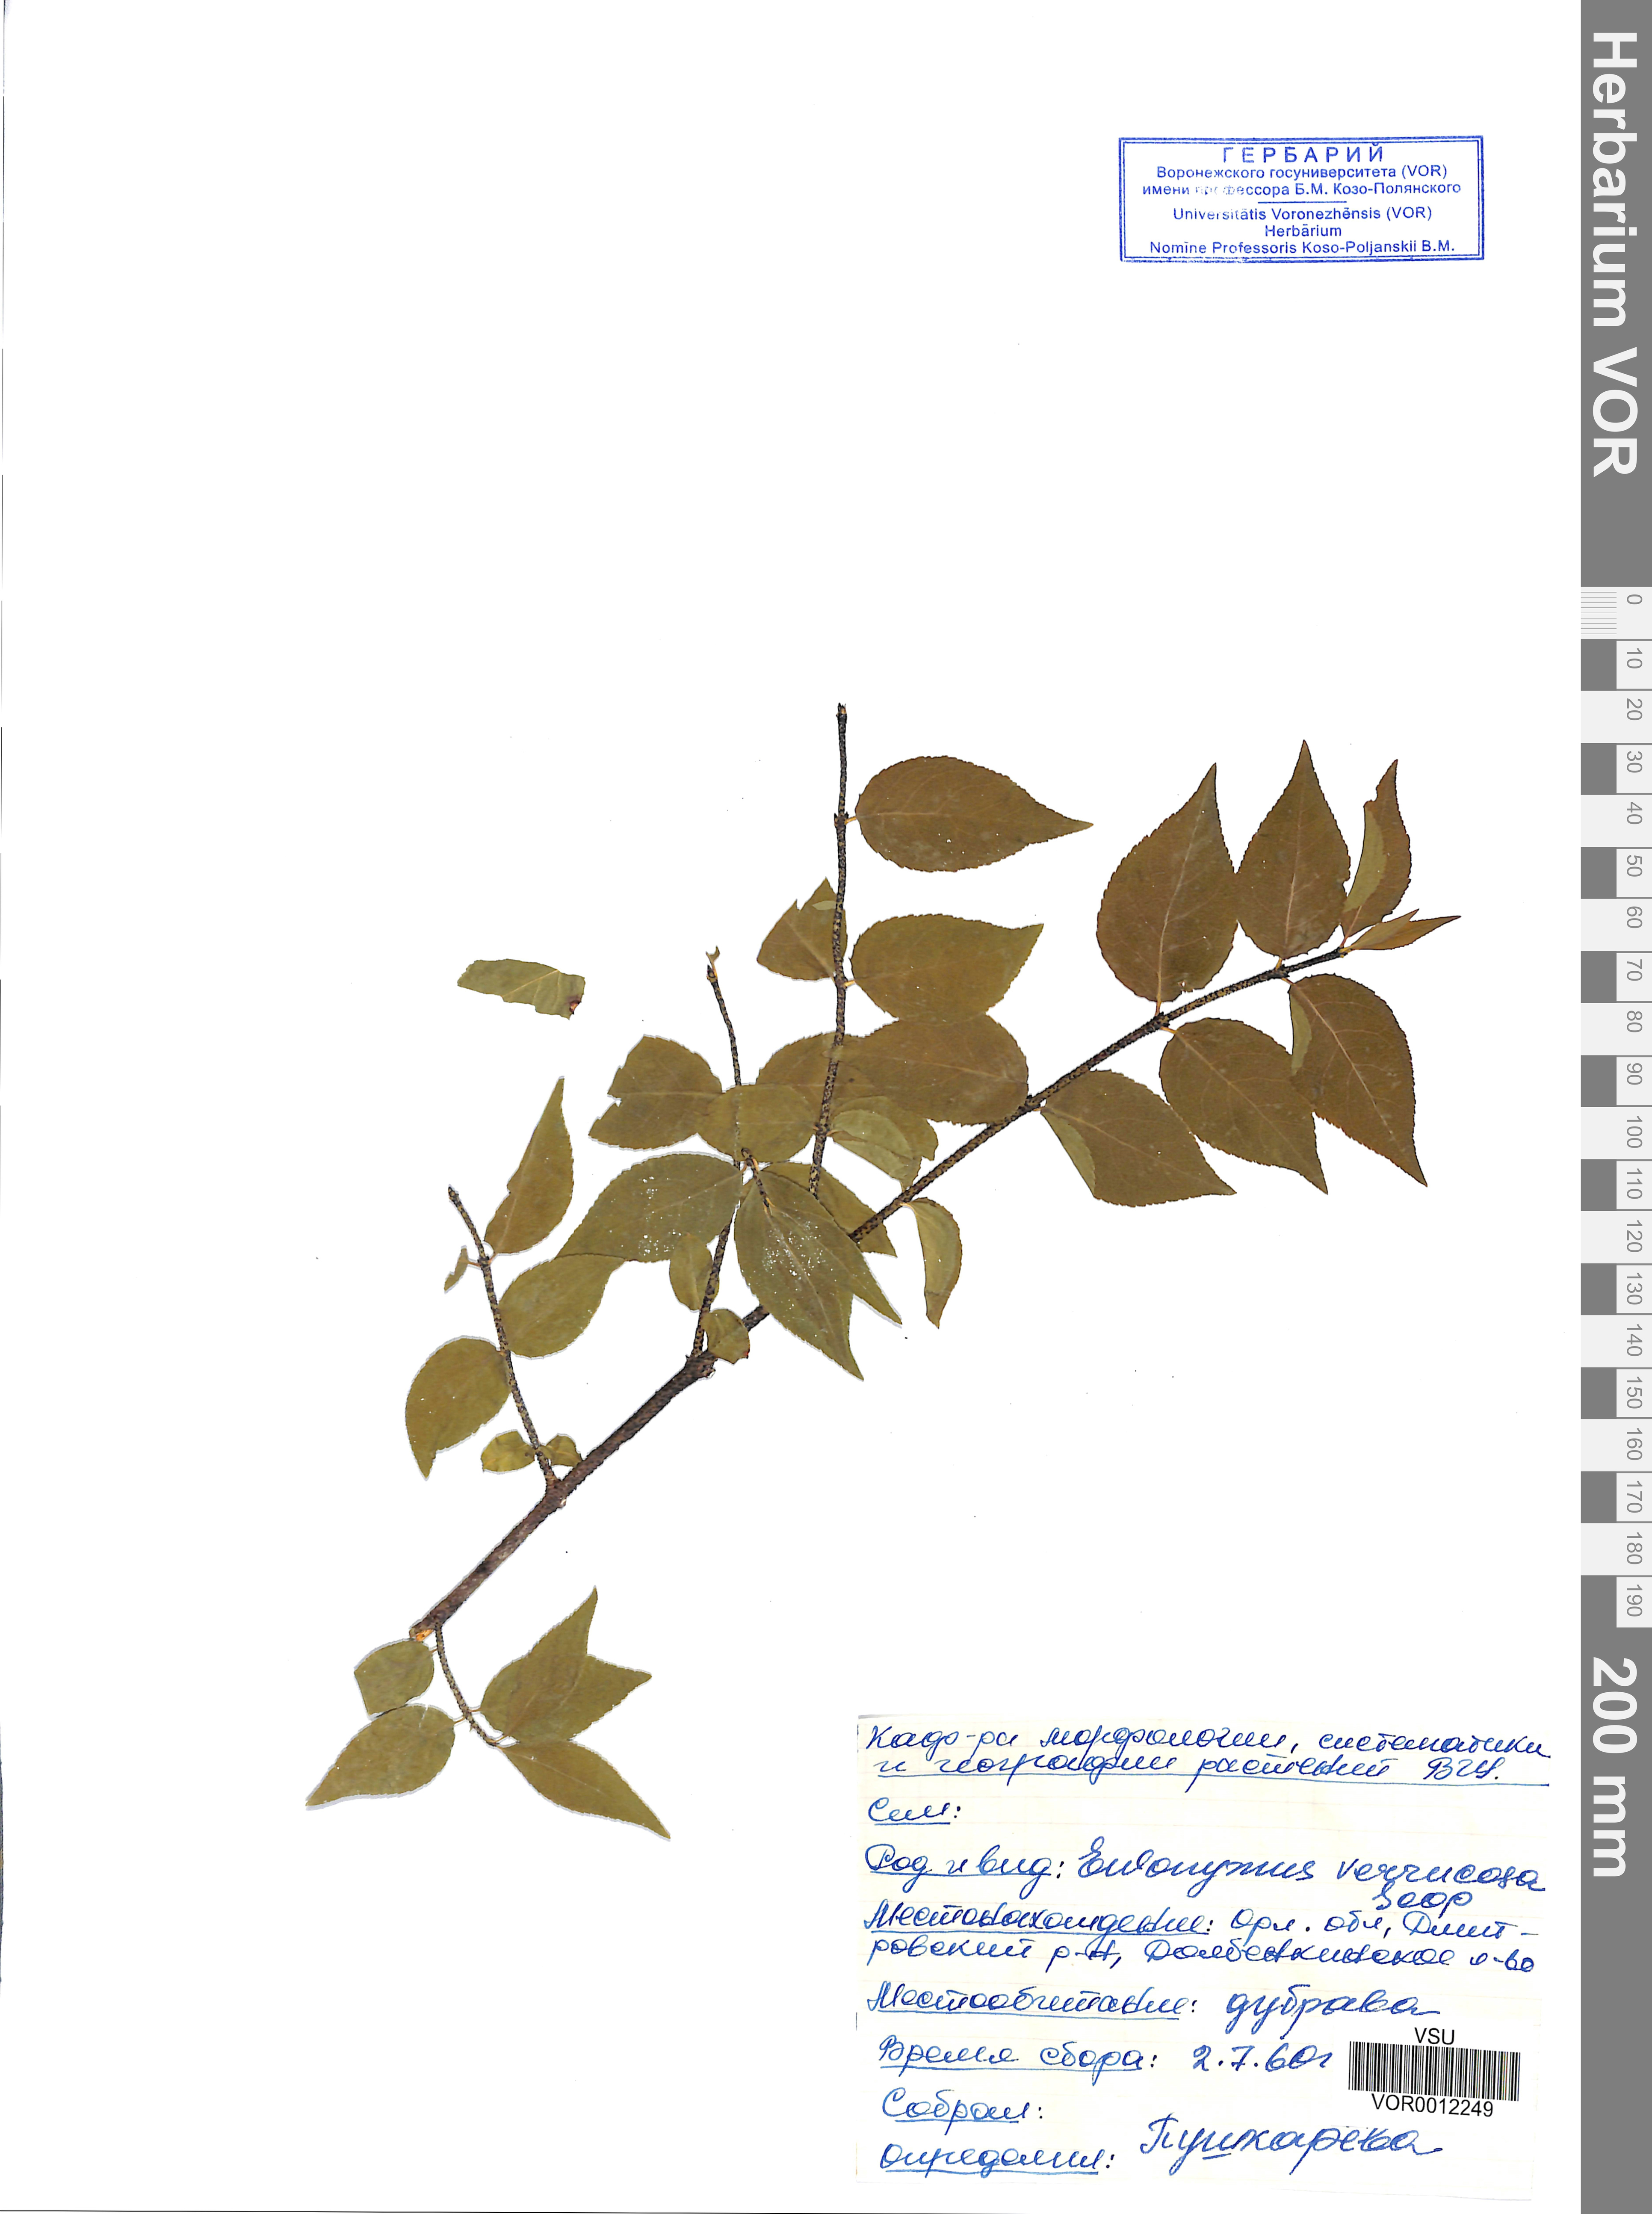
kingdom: Plantae
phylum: Tracheophyta
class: Magnoliopsida
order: Celastrales
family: Celastraceae
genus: Euonymus
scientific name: Euonymus verrucosus
